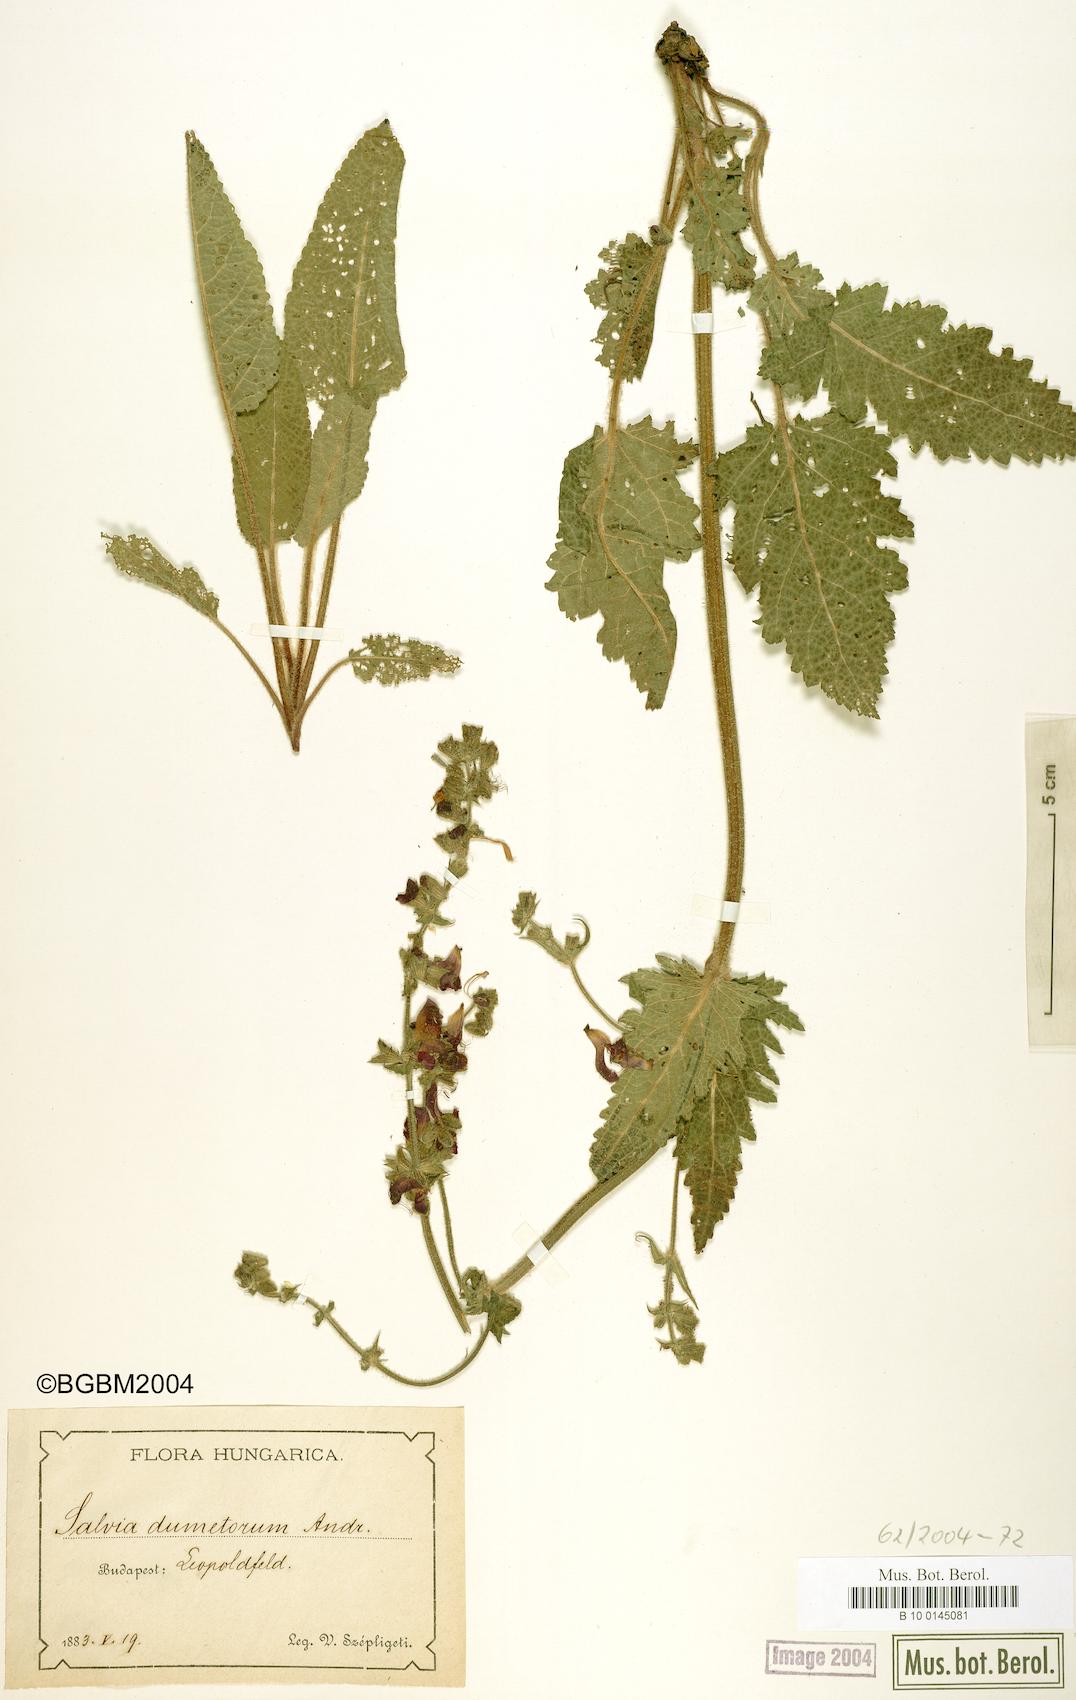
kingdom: Plantae
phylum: Tracheophyta
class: Magnoliopsida
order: Lamiales
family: Lamiaceae
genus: Salvia
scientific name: Salvia dumetorum
